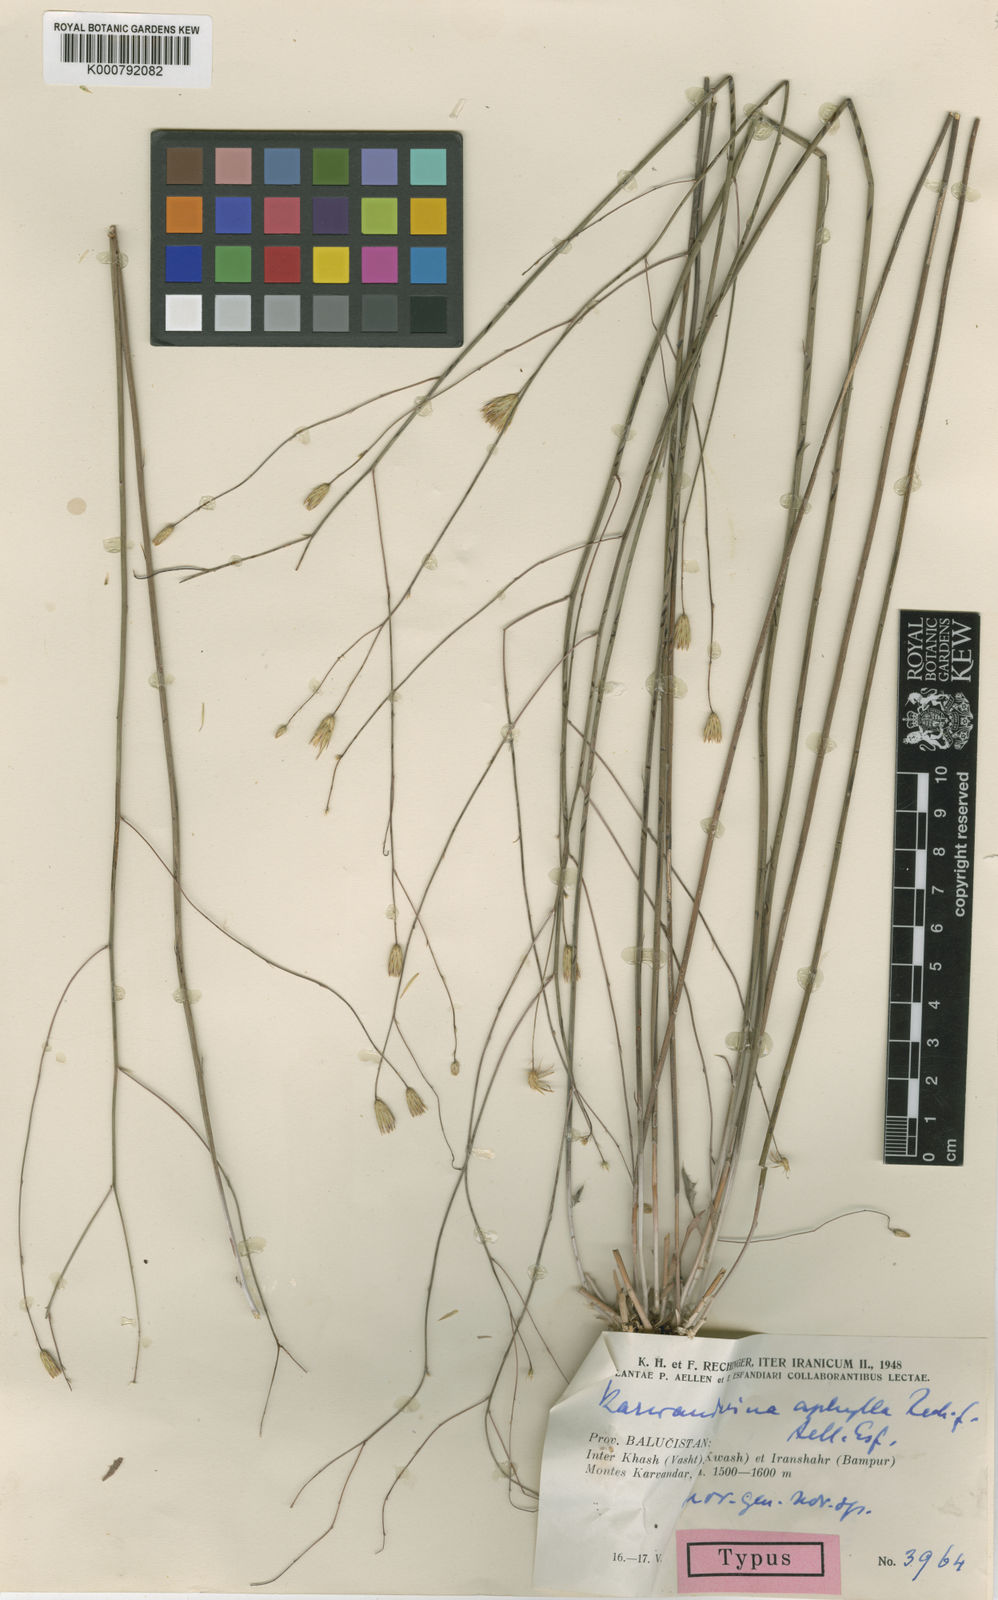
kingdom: Plantae
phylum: Tracheophyta
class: Magnoliopsida
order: Asterales
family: Asteraceae
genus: Karvandarina
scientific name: Karvandarina
